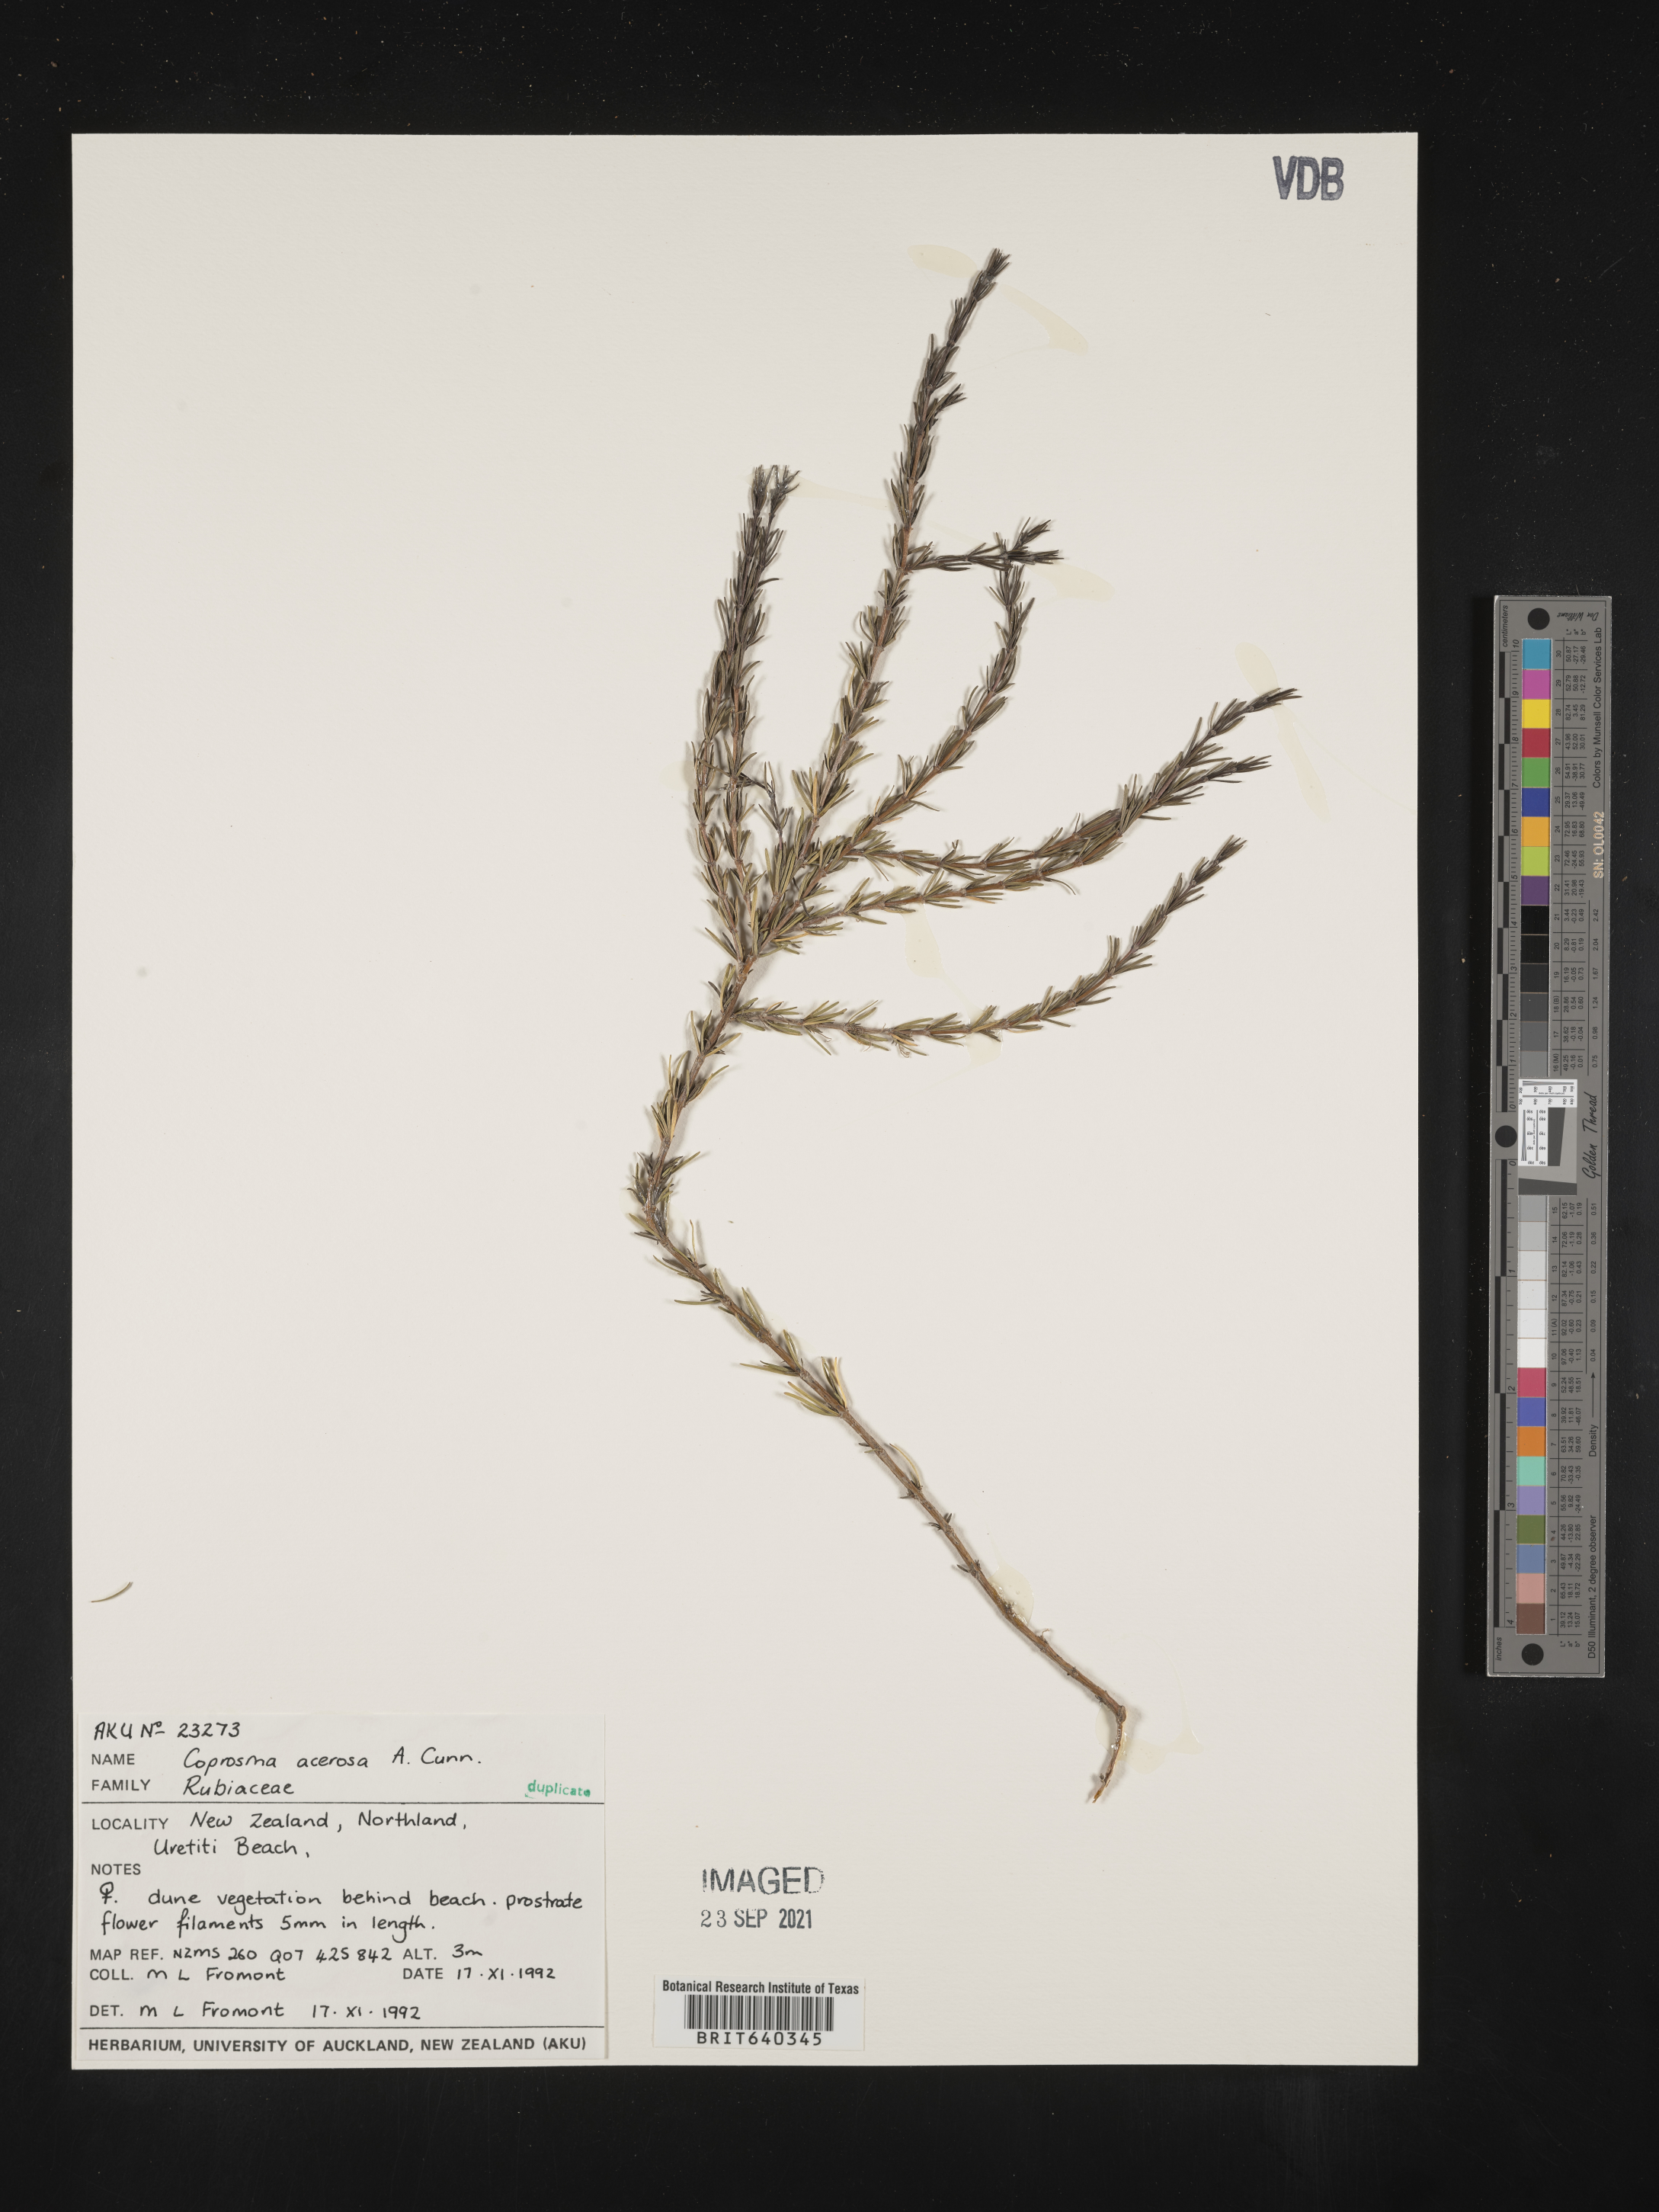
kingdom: Plantae
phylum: Tracheophyta
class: Magnoliopsida
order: Gentianales
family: Rubiaceae
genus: Coprosma
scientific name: Coprosma
